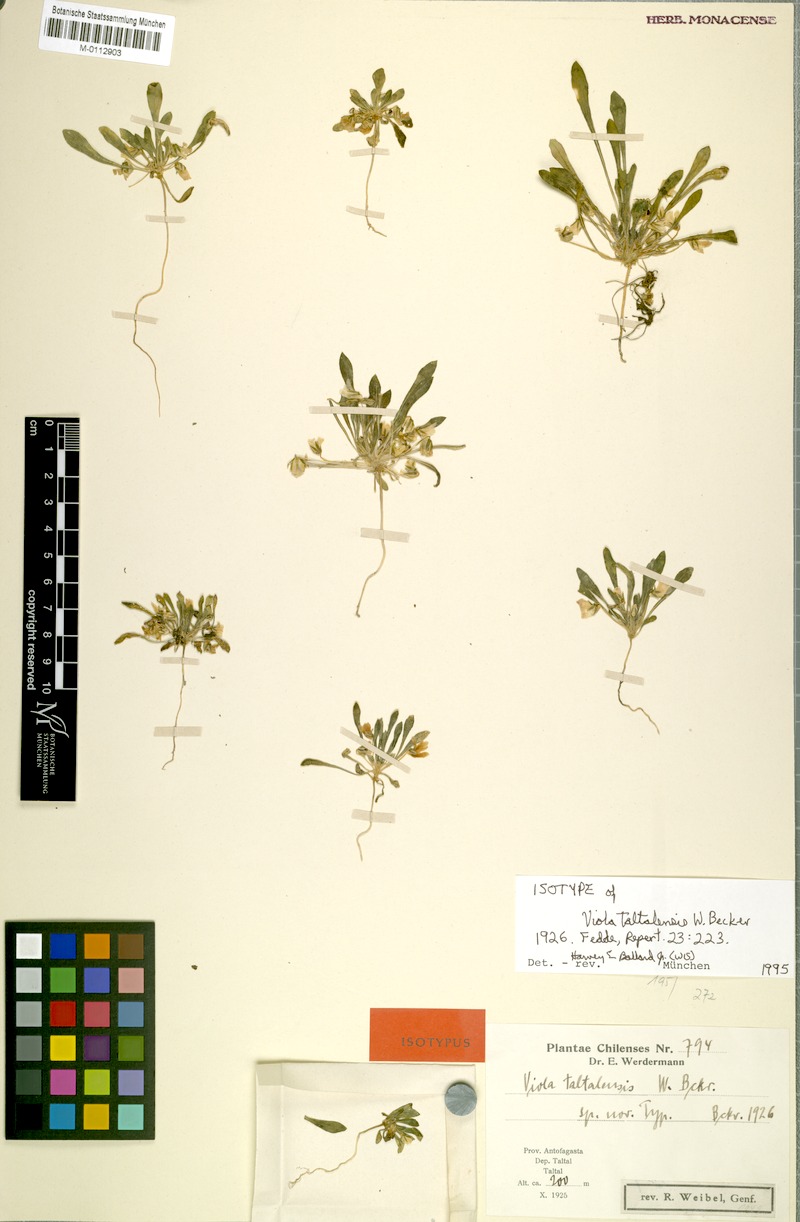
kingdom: Plantae
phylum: Tracheophyta
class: Magnoliopsida
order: Malpighiales
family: Violaceae
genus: Viola
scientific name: Viola taltalensis
